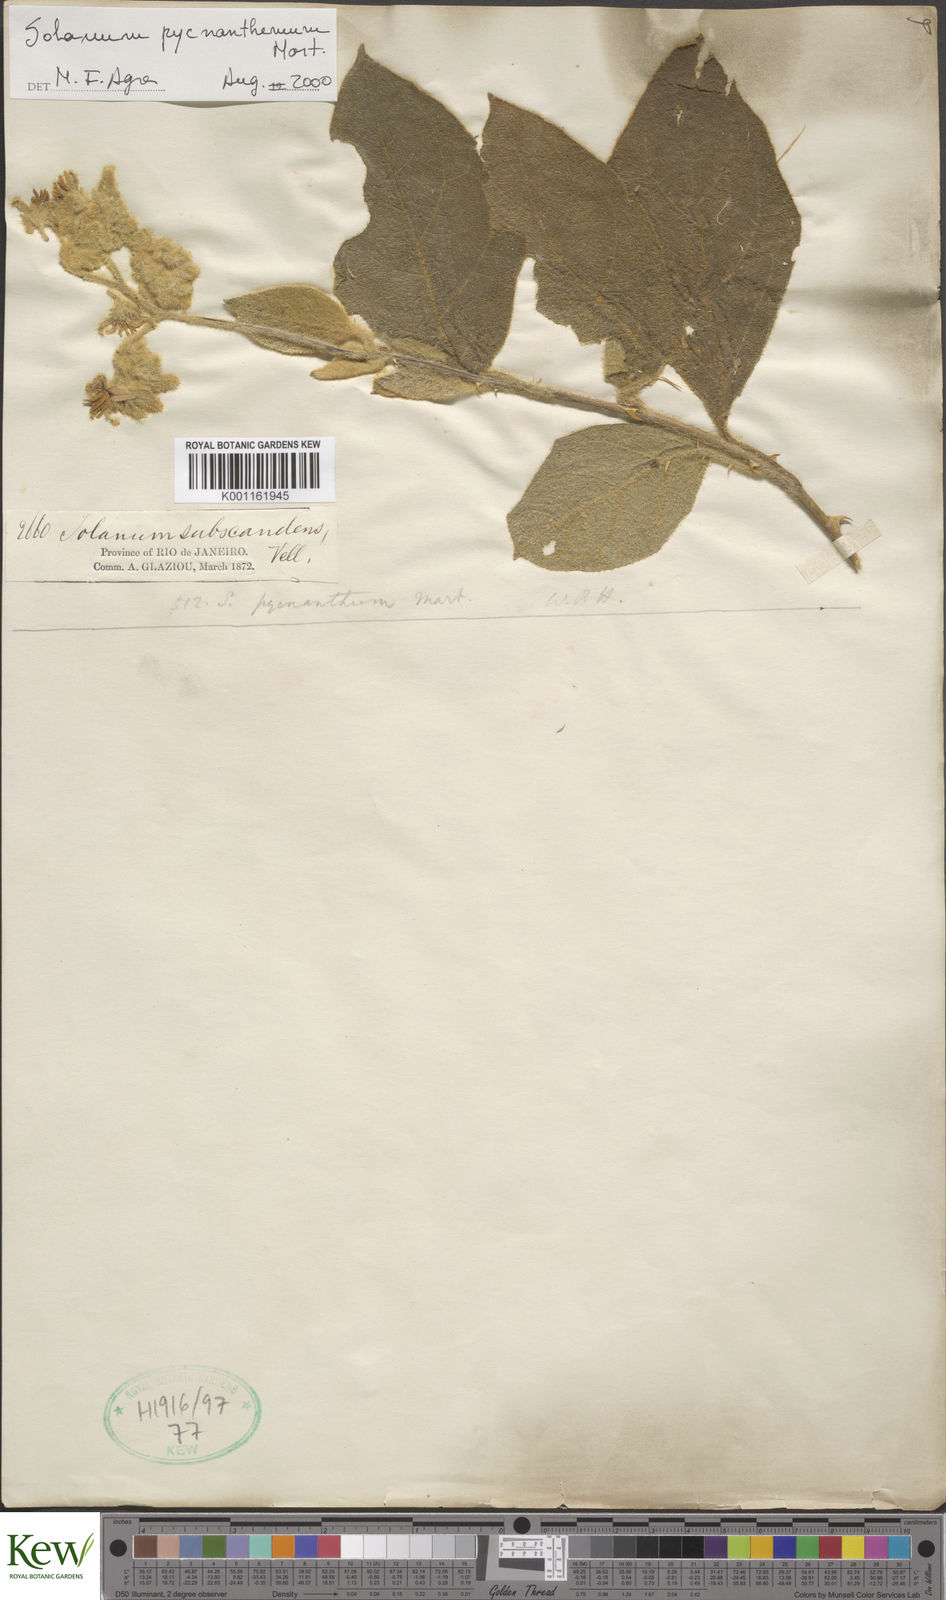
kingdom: Plantae
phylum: Tracheophyta
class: Magnoliopsida
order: Solanales
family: Solanaceae
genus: Solanum
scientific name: Solanum pseudoquina
